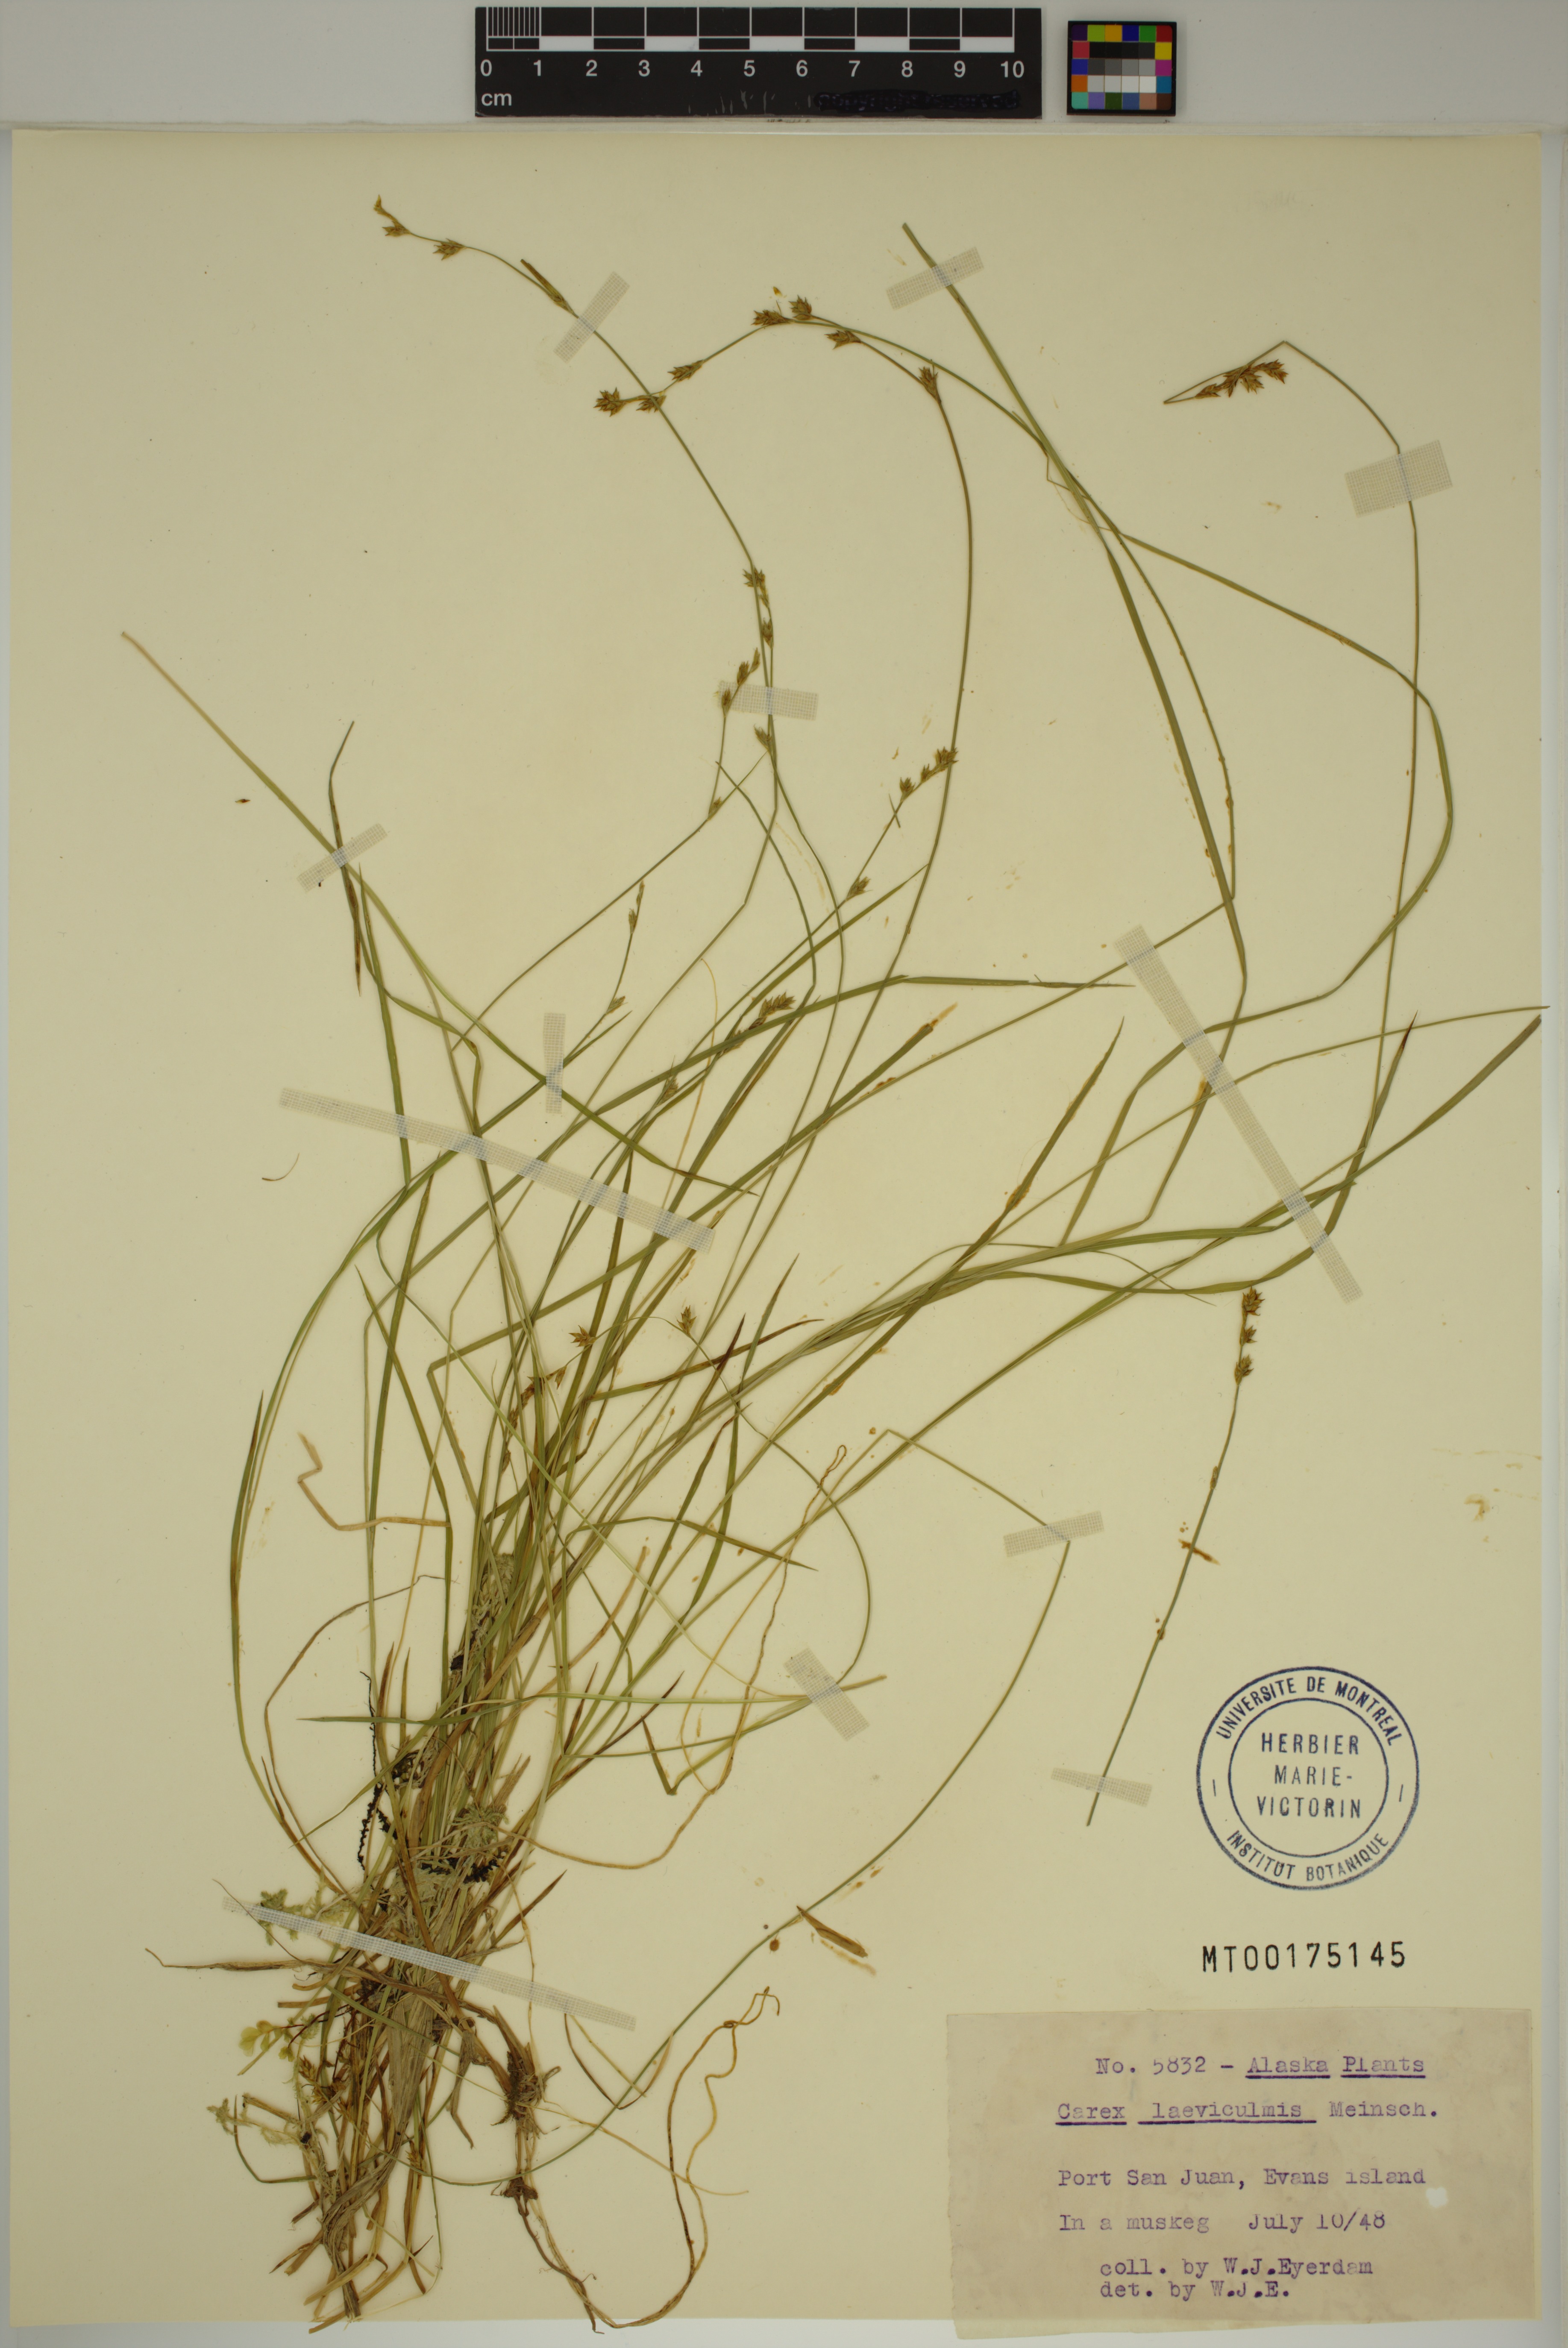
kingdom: Plantae
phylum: Tracheophyta
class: Liliopsida
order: Poales
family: Cyperaceae
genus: Carex
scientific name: Carex laeviculmis
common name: Smooth sedge
